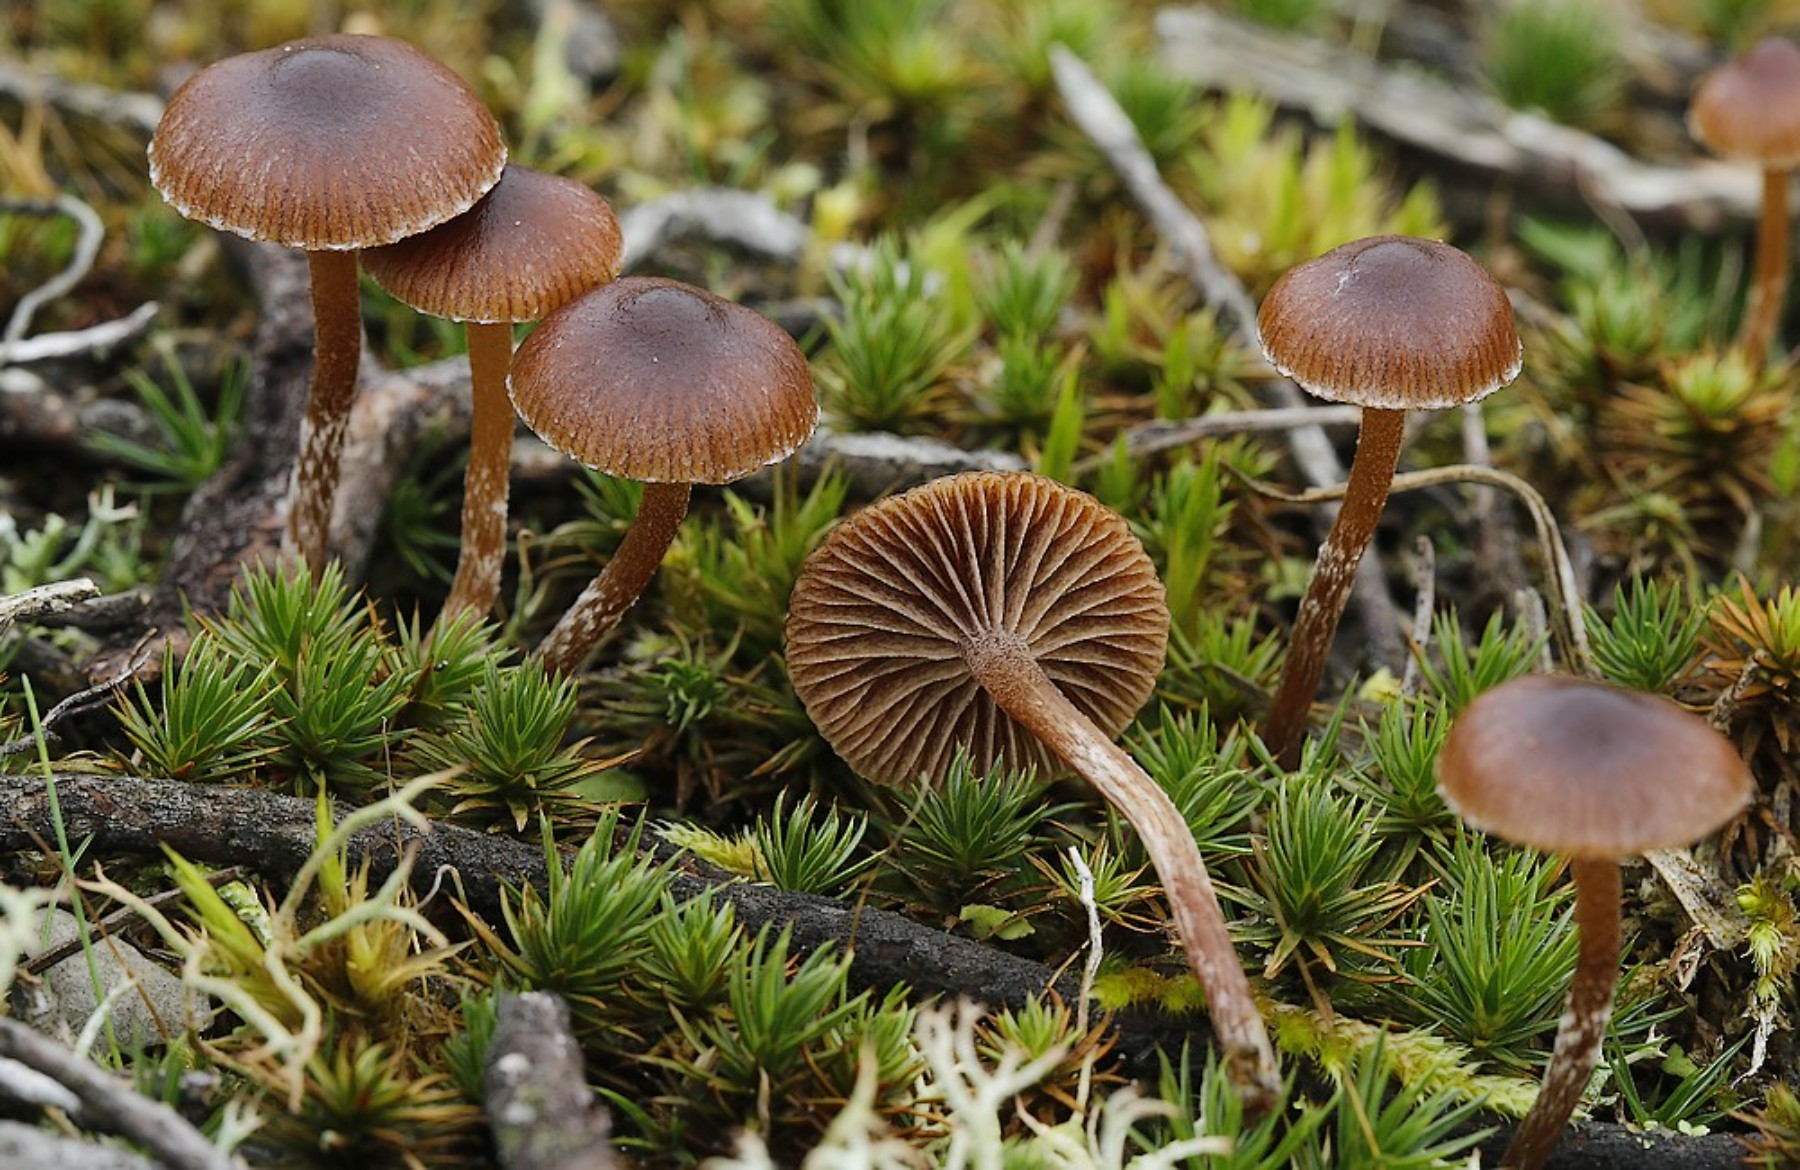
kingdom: Fungi
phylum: Basidiomycota
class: Agaricomycetes
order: Agaricales
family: Strophariaceae
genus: Deconica
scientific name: Deconica montana
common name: rødbrun stråhat
